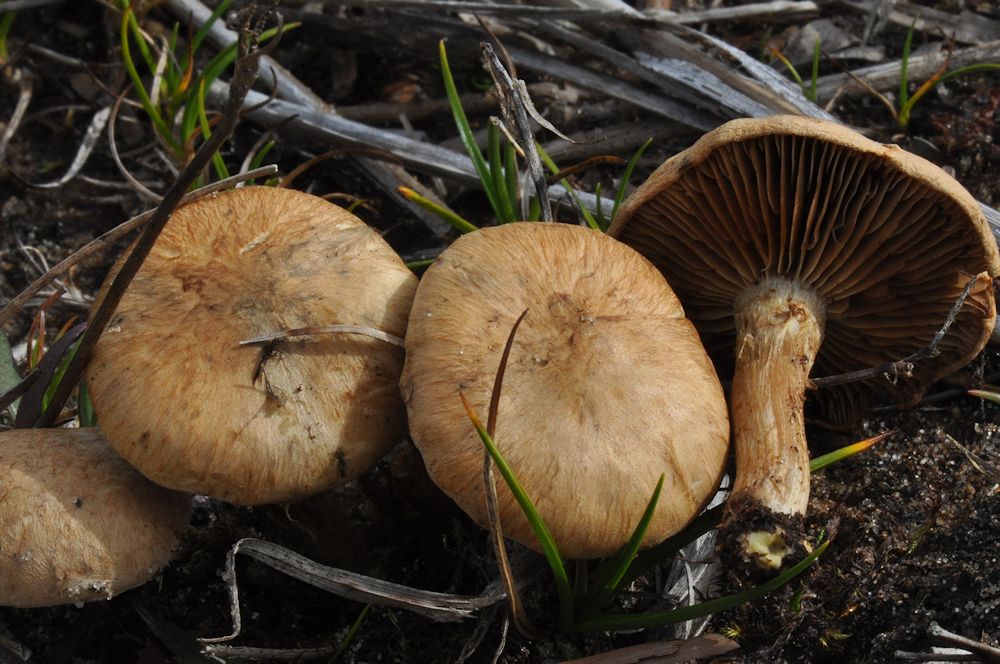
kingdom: Fungi
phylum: Basidiomycota
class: Agaricomycetes
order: Agaricales
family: Inocybaceae
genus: Mallocybe
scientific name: Mallocybe agardhii
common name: Agardhs trævlhat
